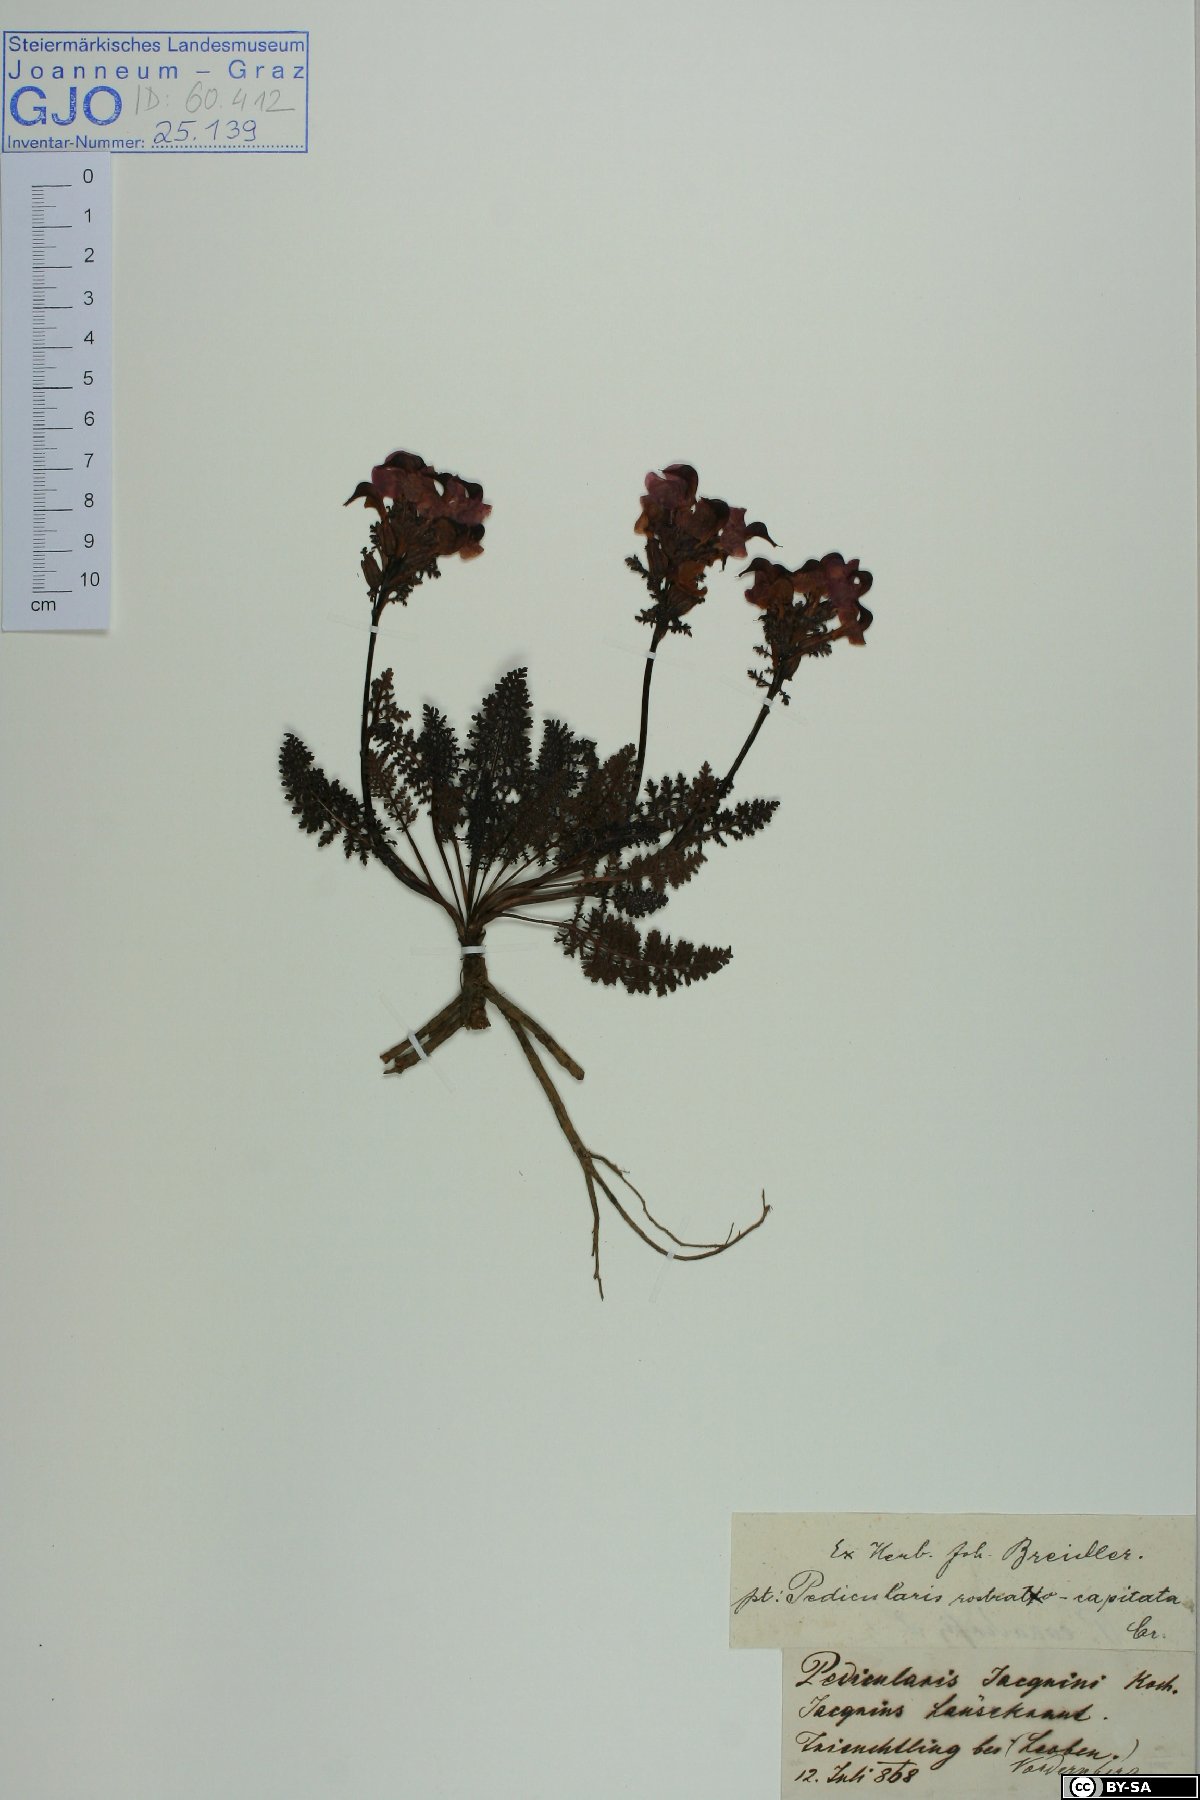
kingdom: Plantae
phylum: Tracheophyta
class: Magnoliopsida
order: Lamiales
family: Orobanchaceae
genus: Pedicularis
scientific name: Pedicularis rostratocapitata
